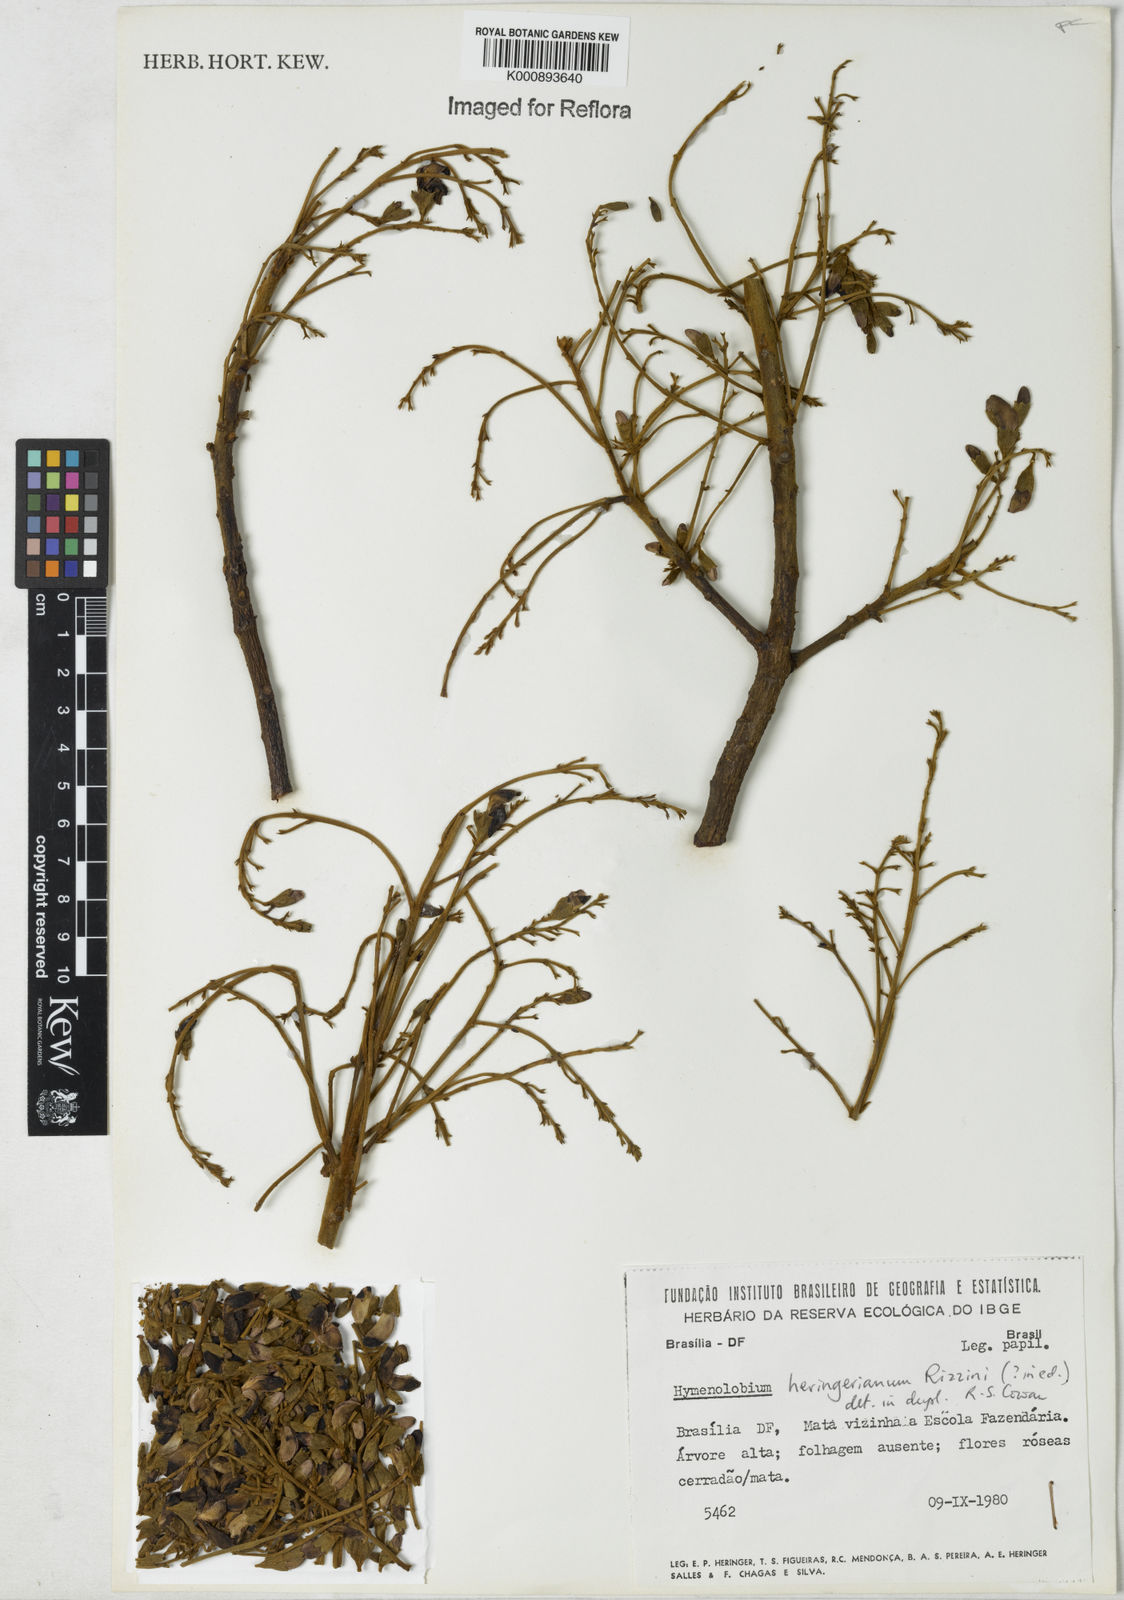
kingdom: Plantae
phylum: Tracheophyta
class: Magnoliopsida
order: Fabales
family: Fabaceae
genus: Hymenolobium
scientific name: Hymenolobium
